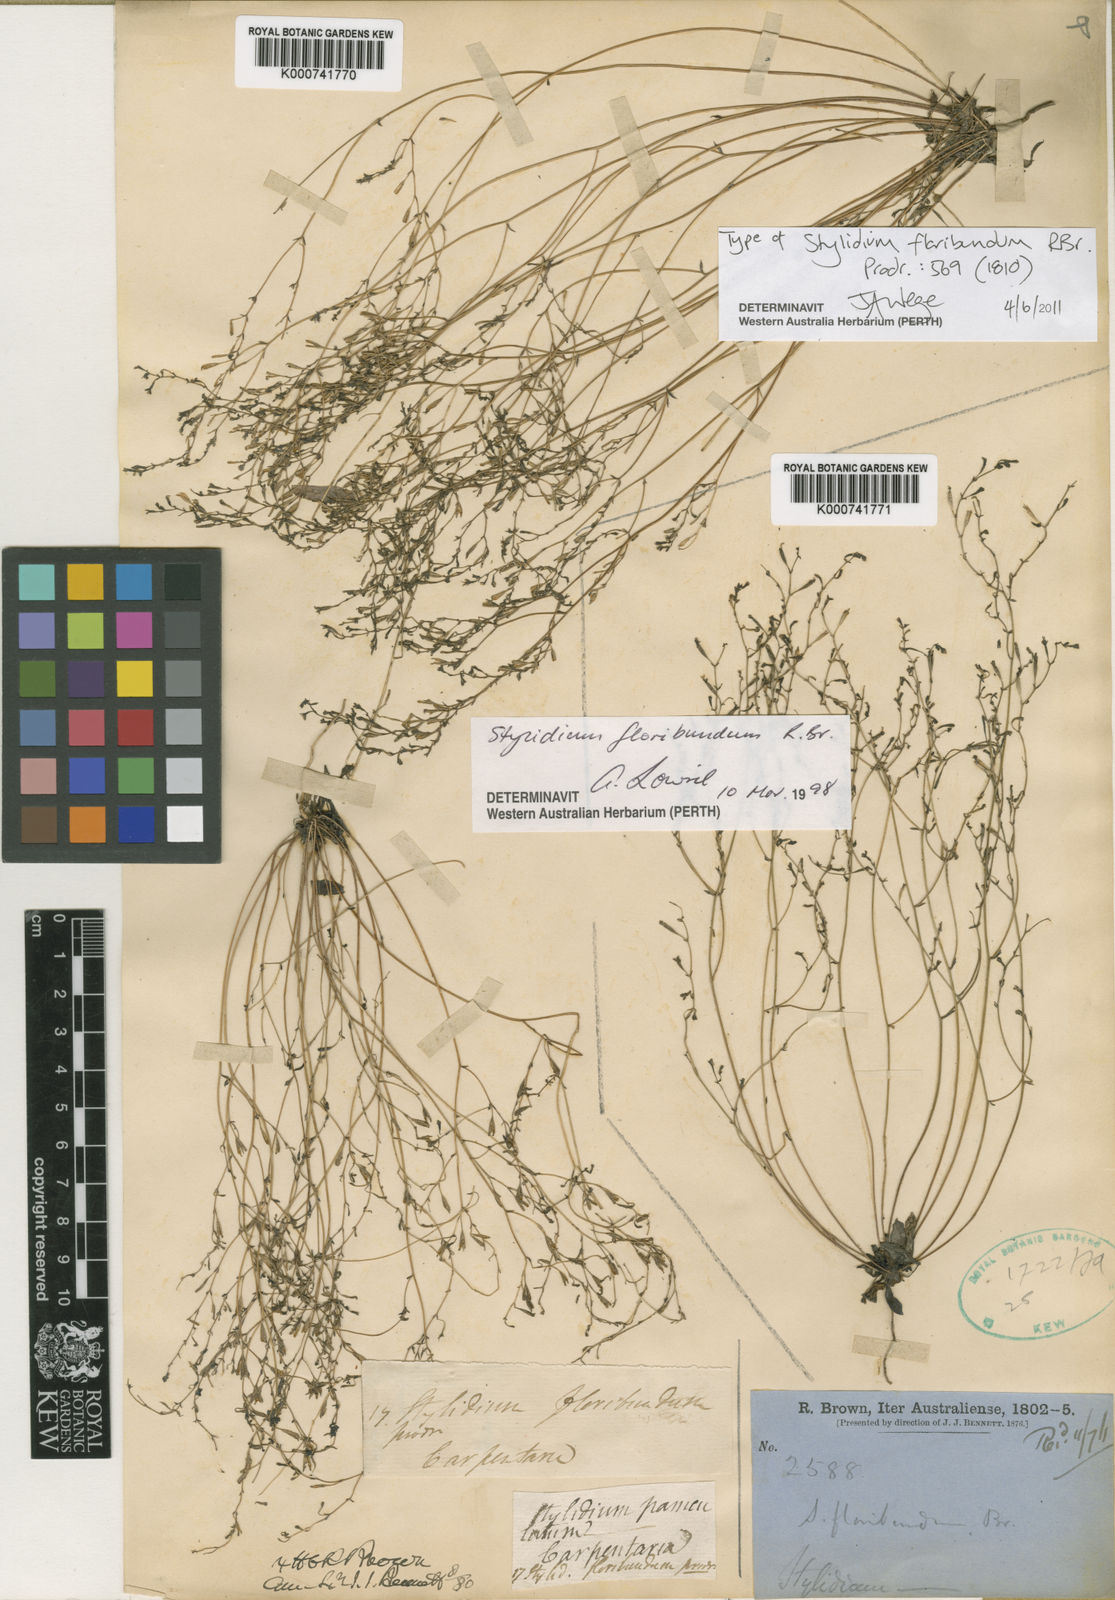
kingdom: Plantae
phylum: Tracheophyta
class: Magnoliopsida
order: Asterales
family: Stylidiaceae
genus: Stylidium
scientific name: Stylidium floribundum
